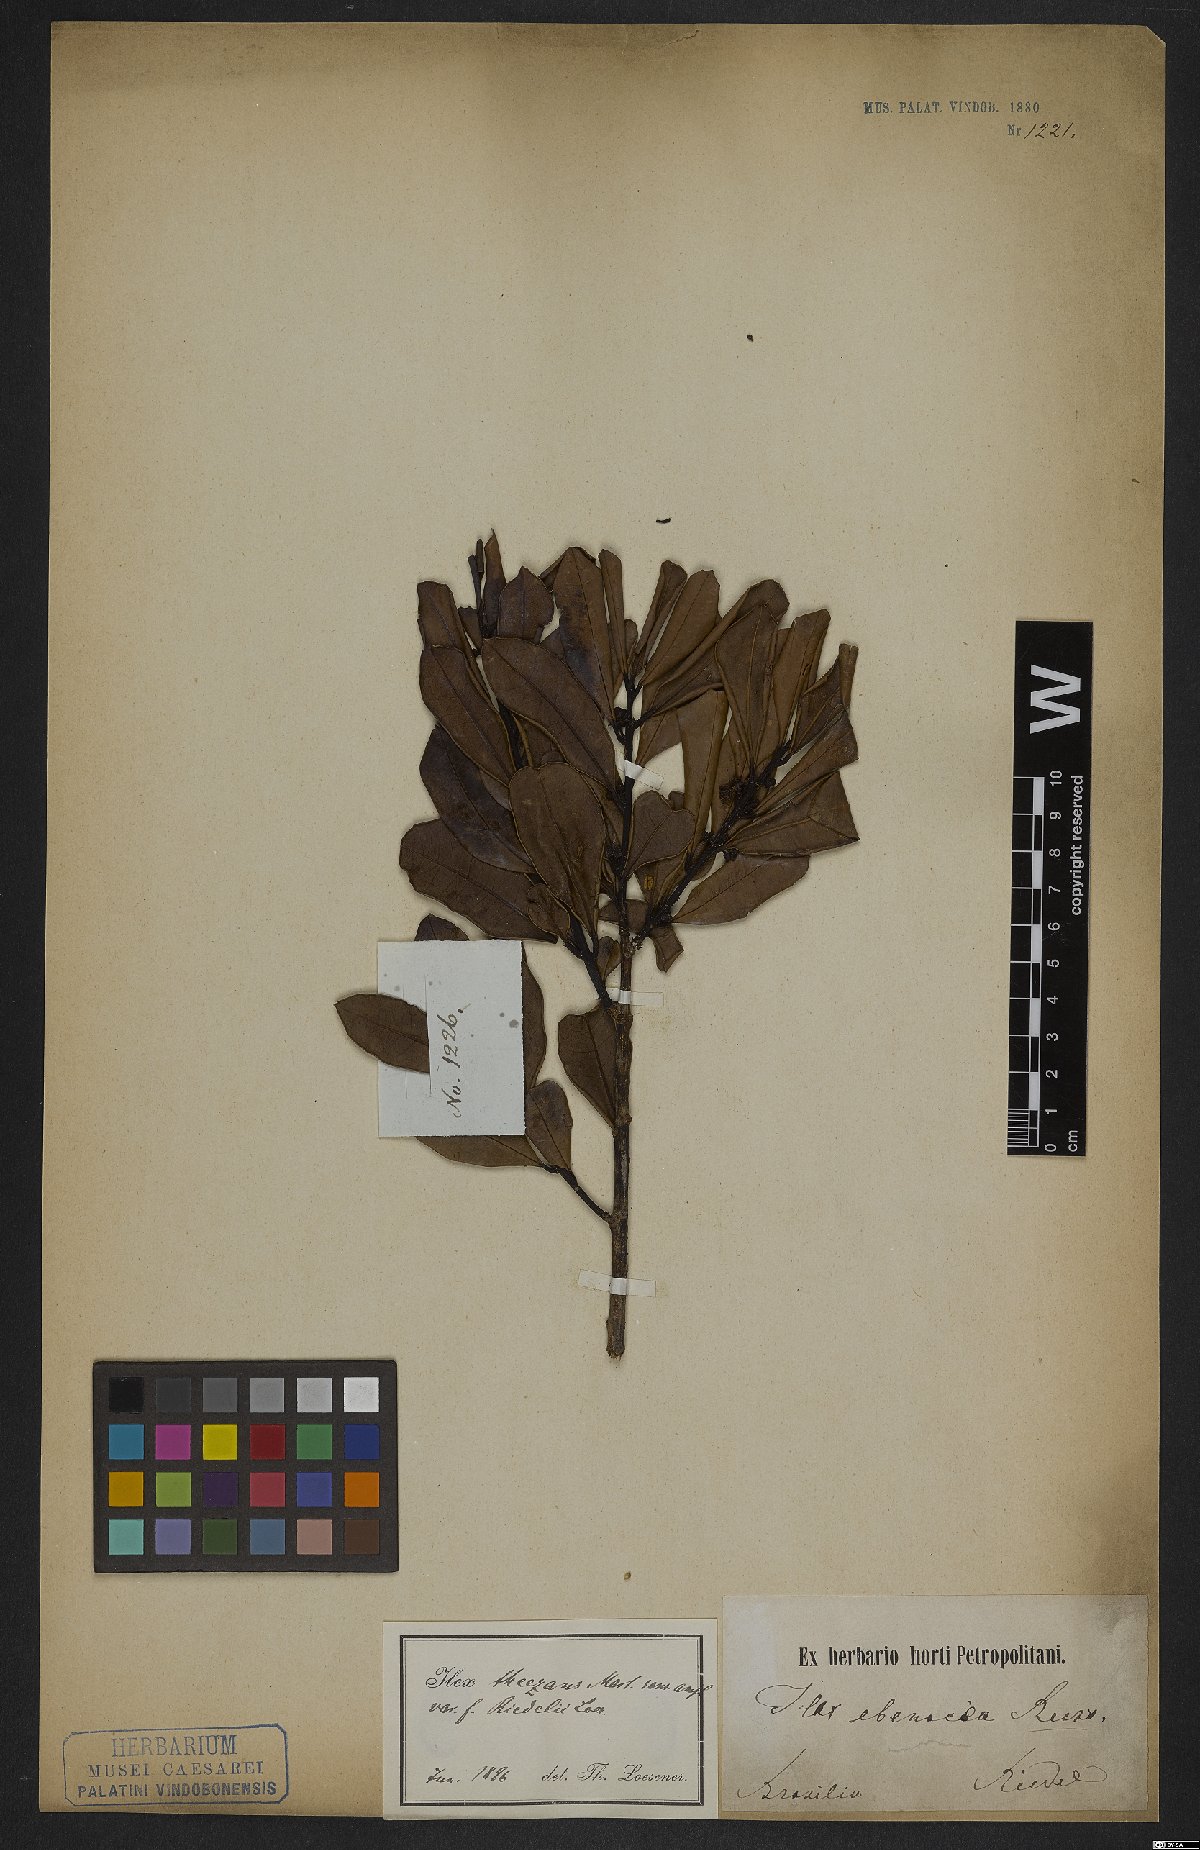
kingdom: Plantae
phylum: Tracheophyta
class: Magnoliopsida
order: Aquifoliales
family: Aquifoliaceae
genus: Ilex
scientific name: Ilex theezans
